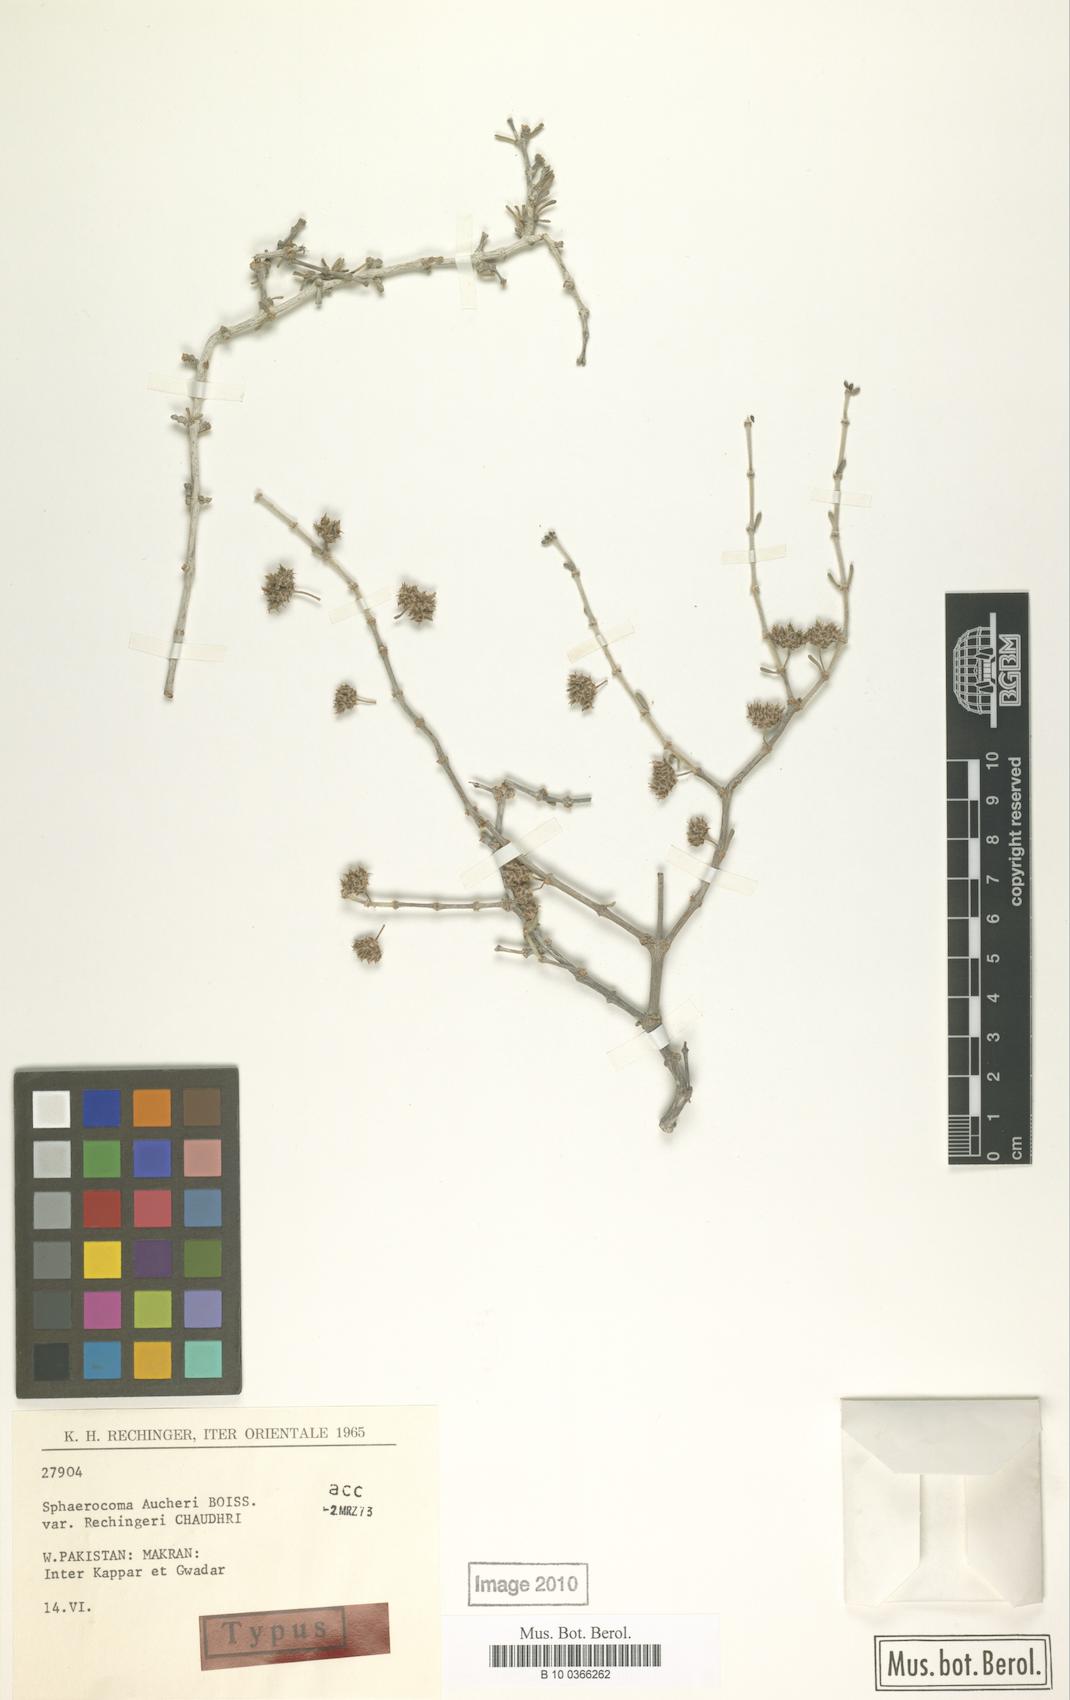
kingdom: Plantae
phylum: Tracheophyta
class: Magnoliopsida
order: Caryophyllales
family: Caryophyllaceae
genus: Sphaerocoma
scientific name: Sphaerocoma hookeri
